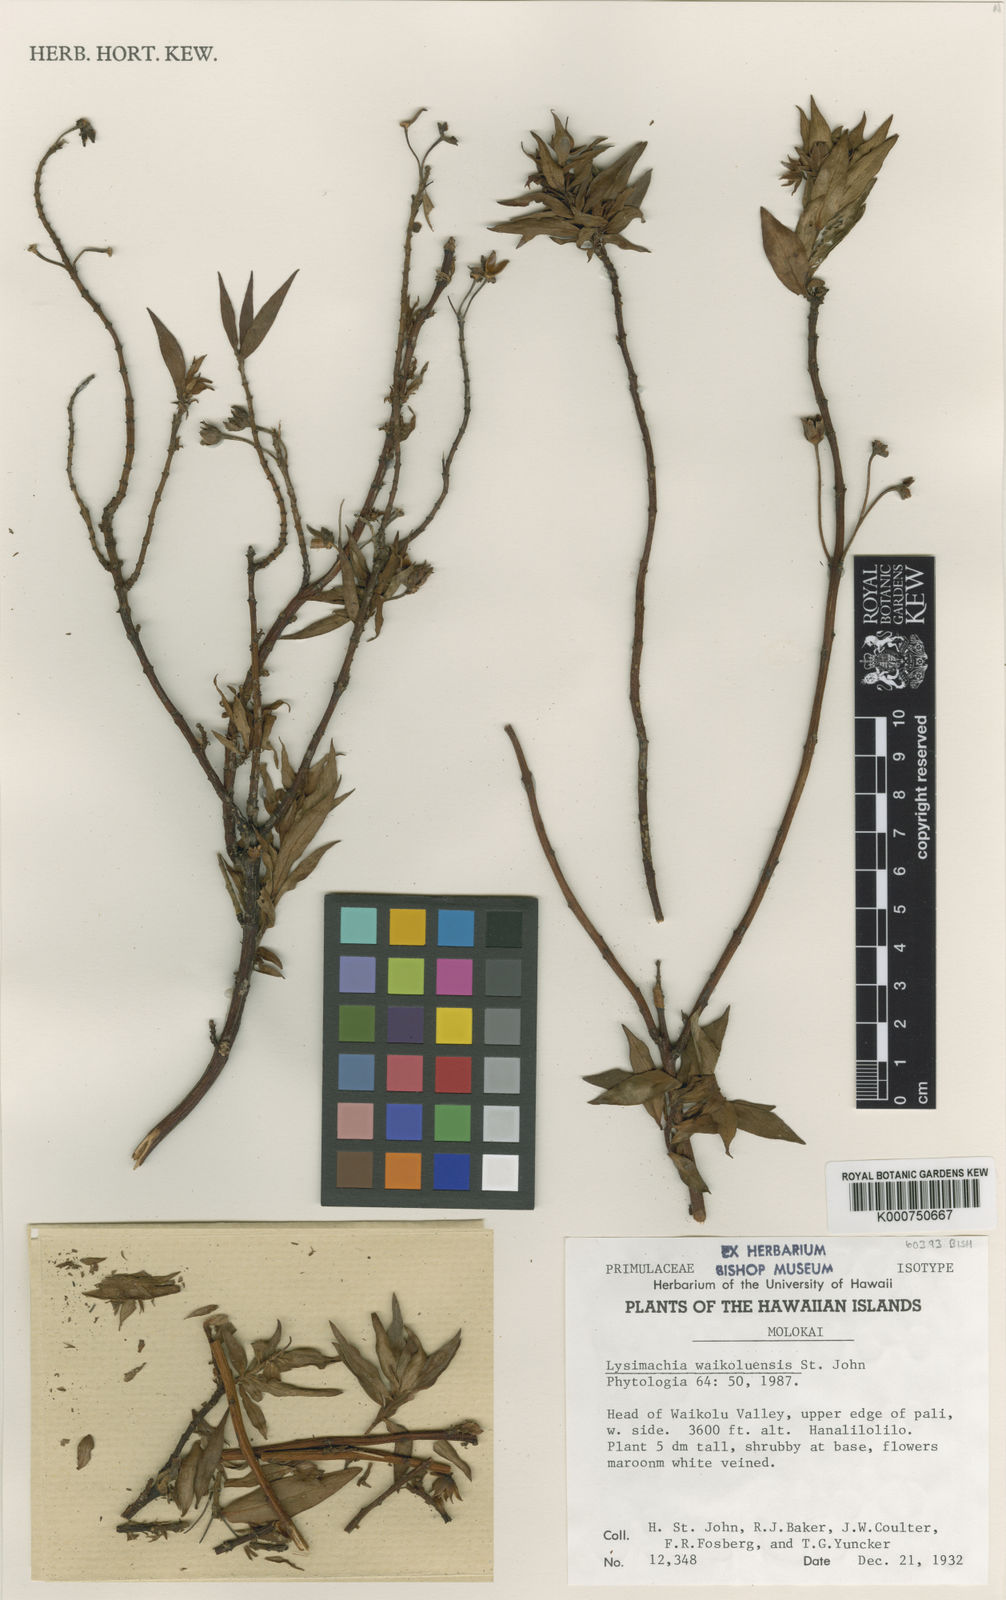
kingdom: Plantae
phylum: Tracheophyta
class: Magnoliopsida
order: Ericales
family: Primulaceae
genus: Lysimachia
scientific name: Lysimachia remyi
